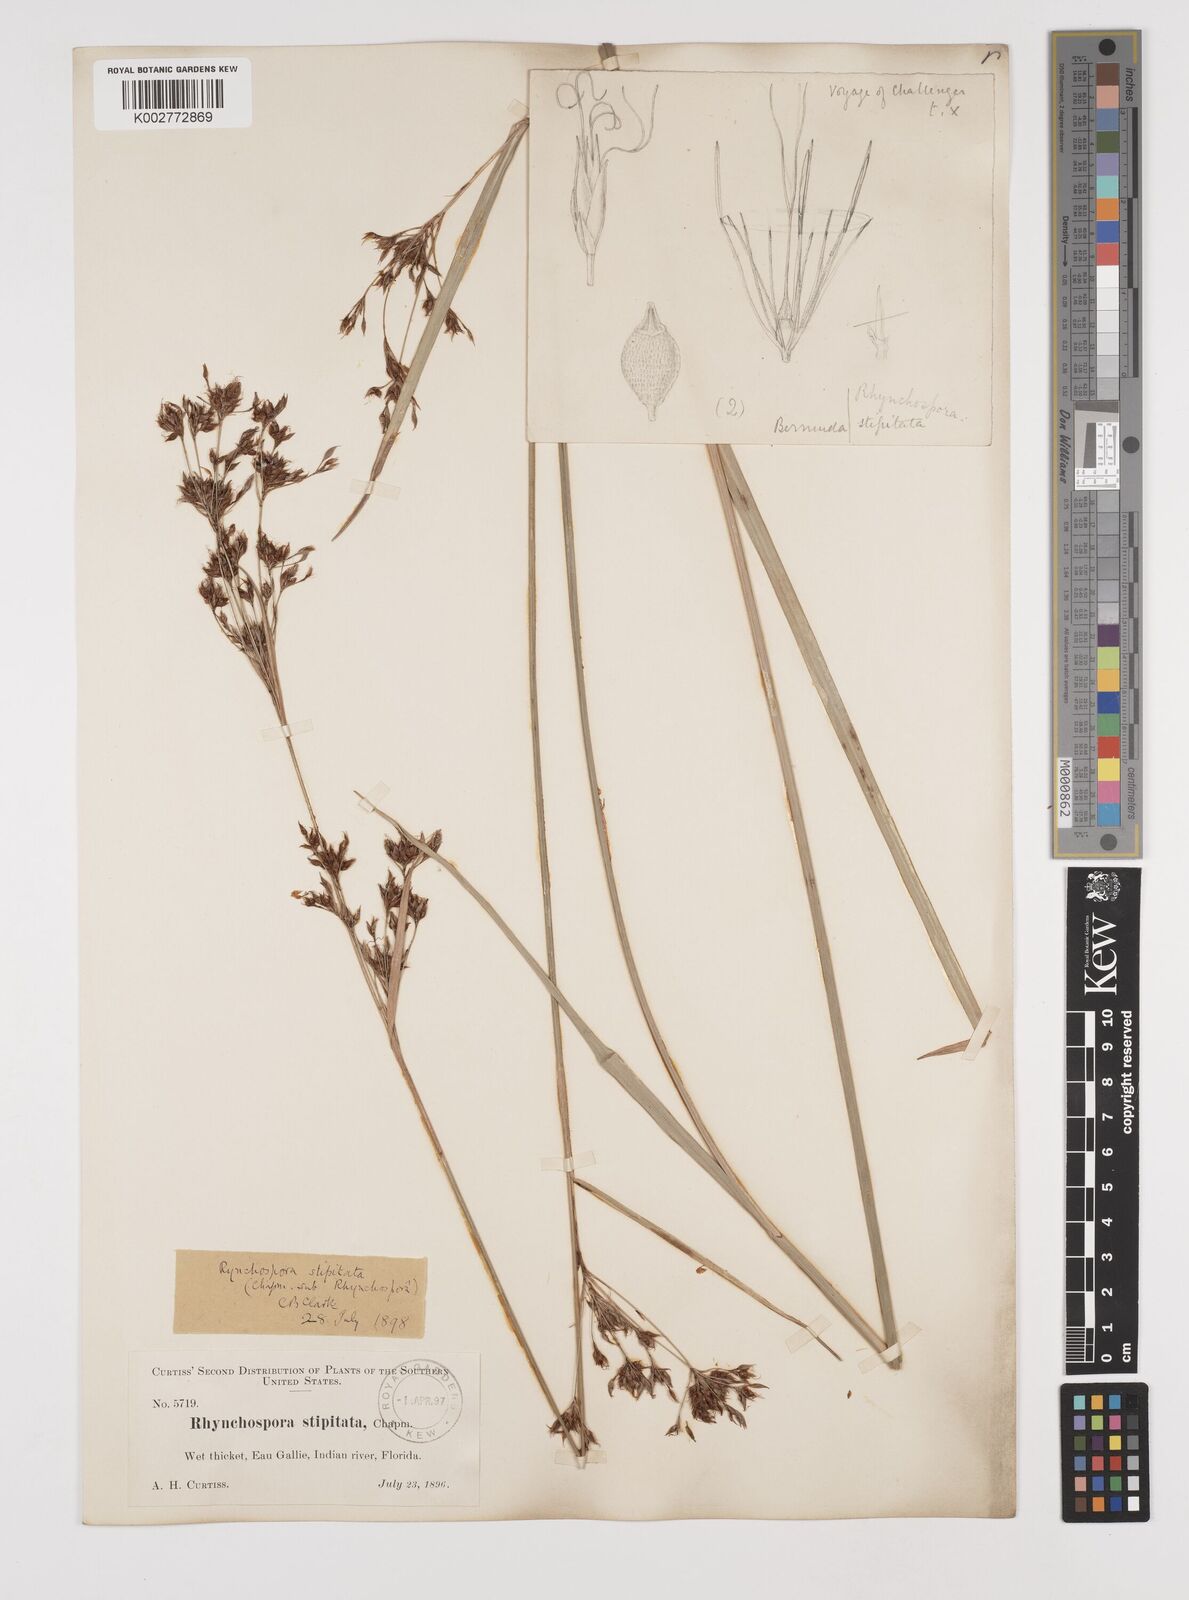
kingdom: Plantae
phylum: Tracheophyta
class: Liliopsida
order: Poales
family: Cyperaceae
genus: Rhynchospora
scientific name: Rhynchospora odorata
